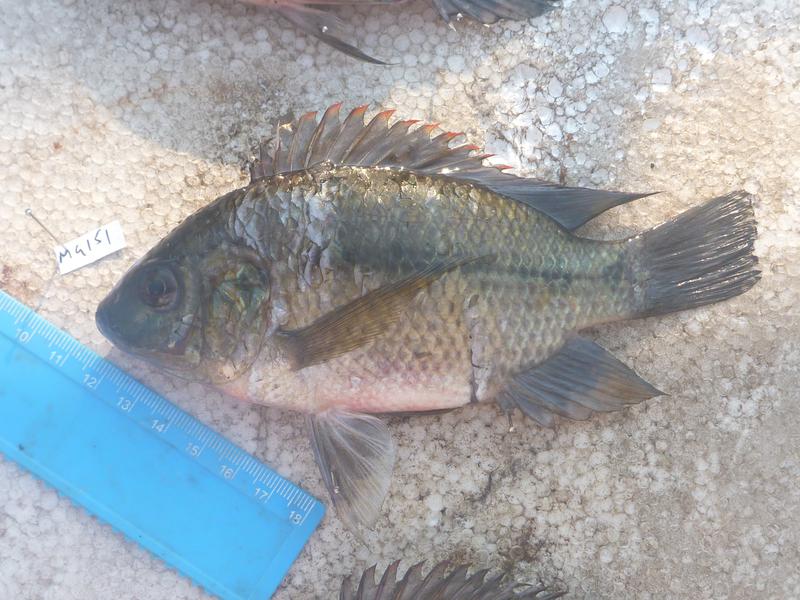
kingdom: Animalia
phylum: Chordata
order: Perciformes
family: Cichlidae
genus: Oreochromis
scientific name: Oreochromis upembae
